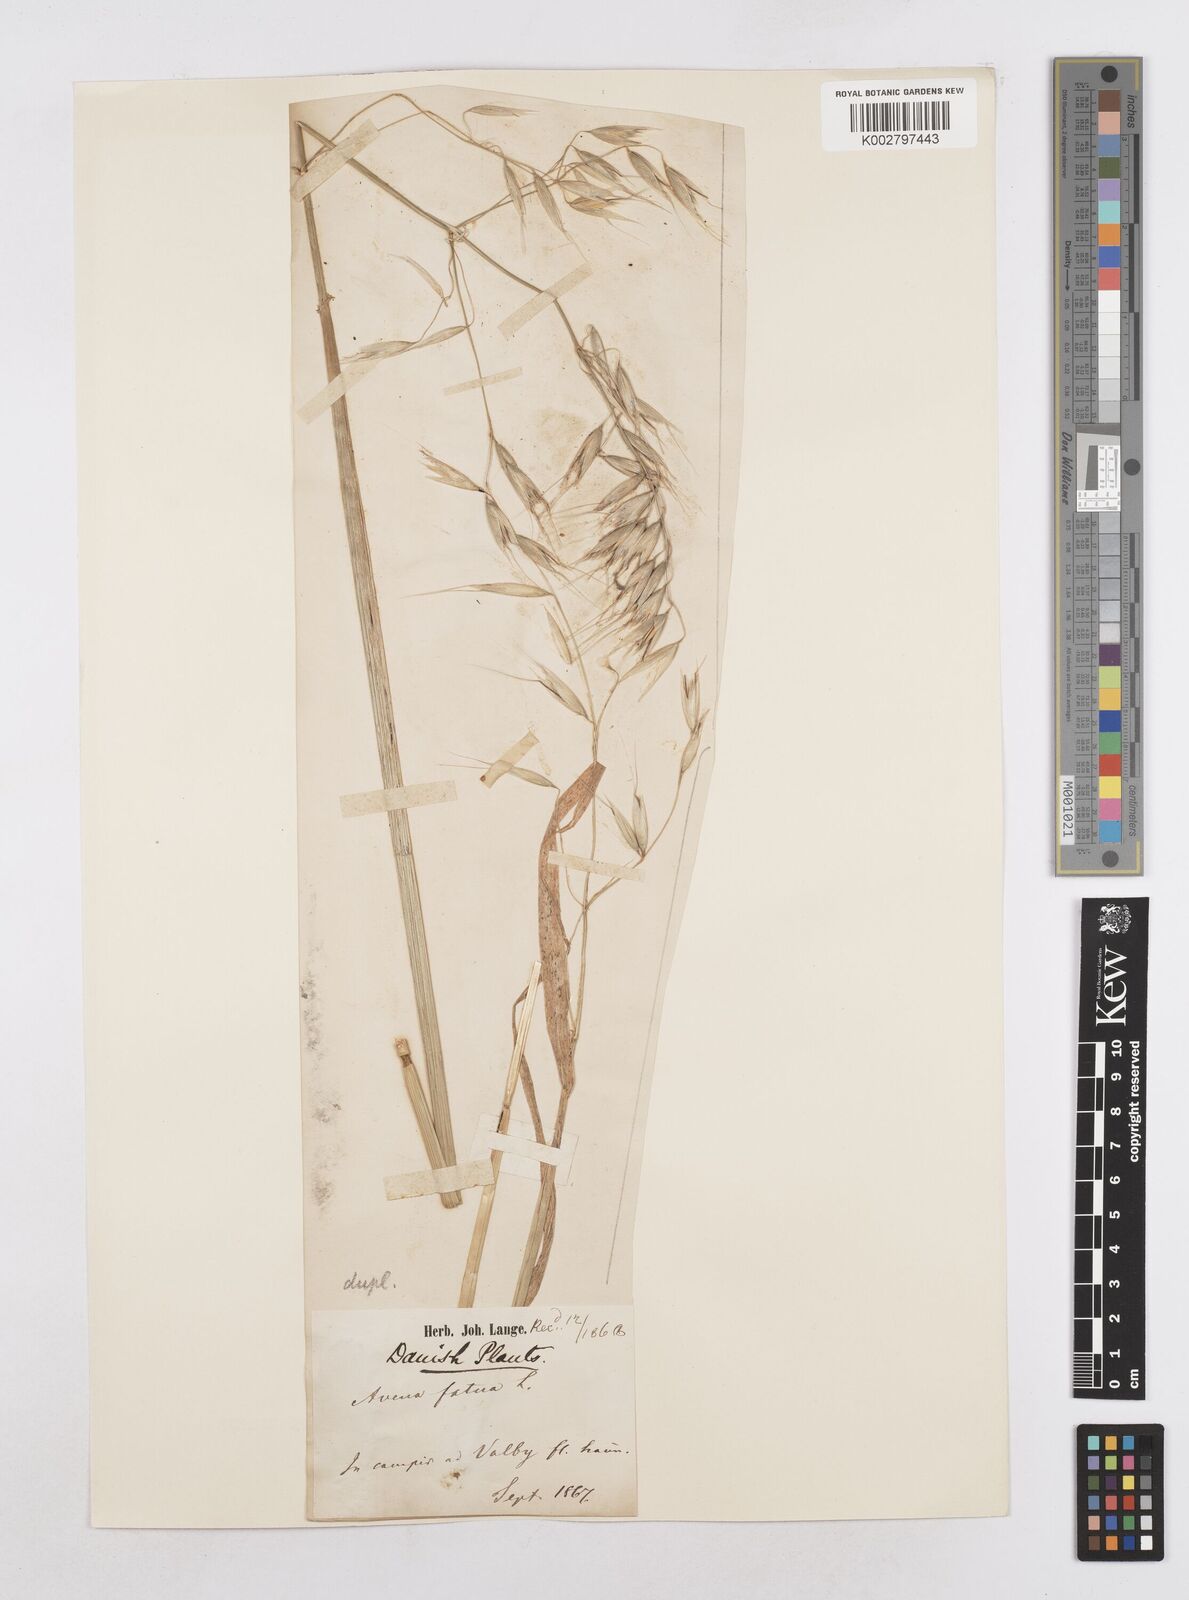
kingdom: Plantae
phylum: Tracheophyta
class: Liliopsida
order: Poales
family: Poaceae
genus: Avena
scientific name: Avena fatua
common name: Wild oat
